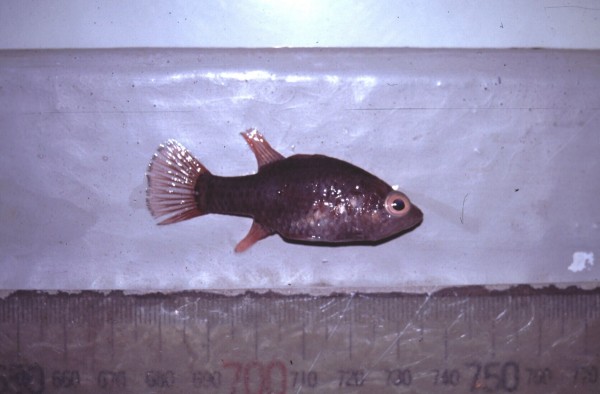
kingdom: Animalia
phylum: Chordata
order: Perciformes
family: Apogonidae
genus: Fowleria
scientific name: Fowleria variegata
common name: Variegated cardinalfish
